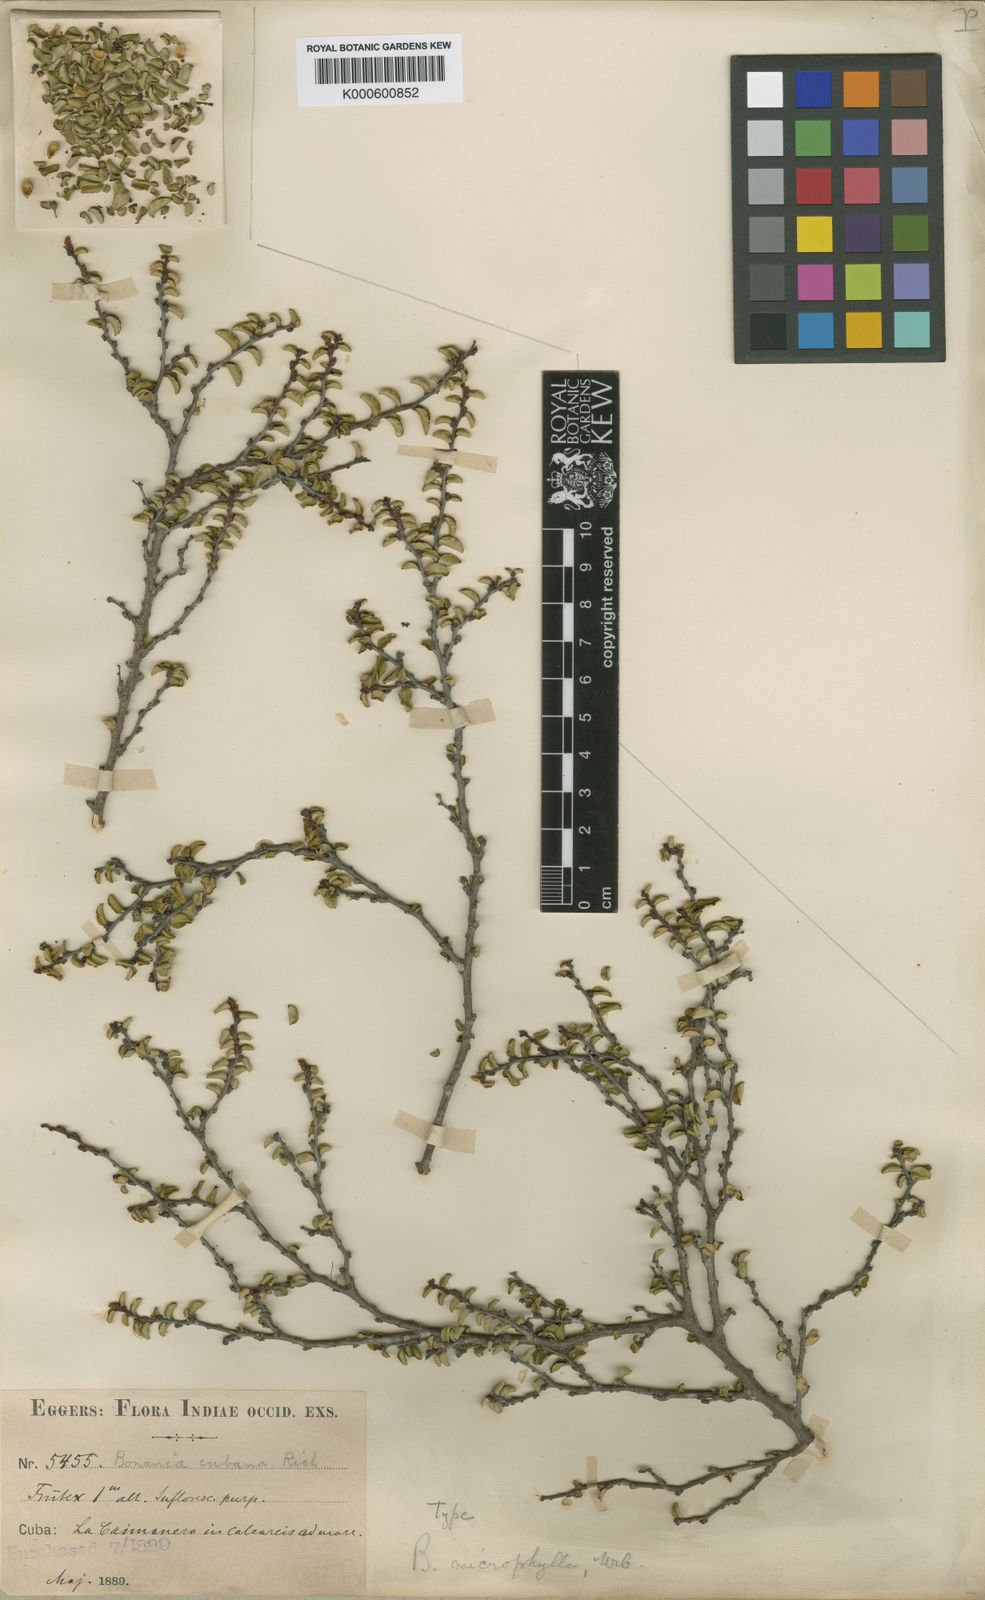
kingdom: Plantae
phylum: Tracheophyta
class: Magnoliopsida
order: Malpighiales
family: Euphorbiaceae
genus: Bonania
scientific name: Bonania cubana
